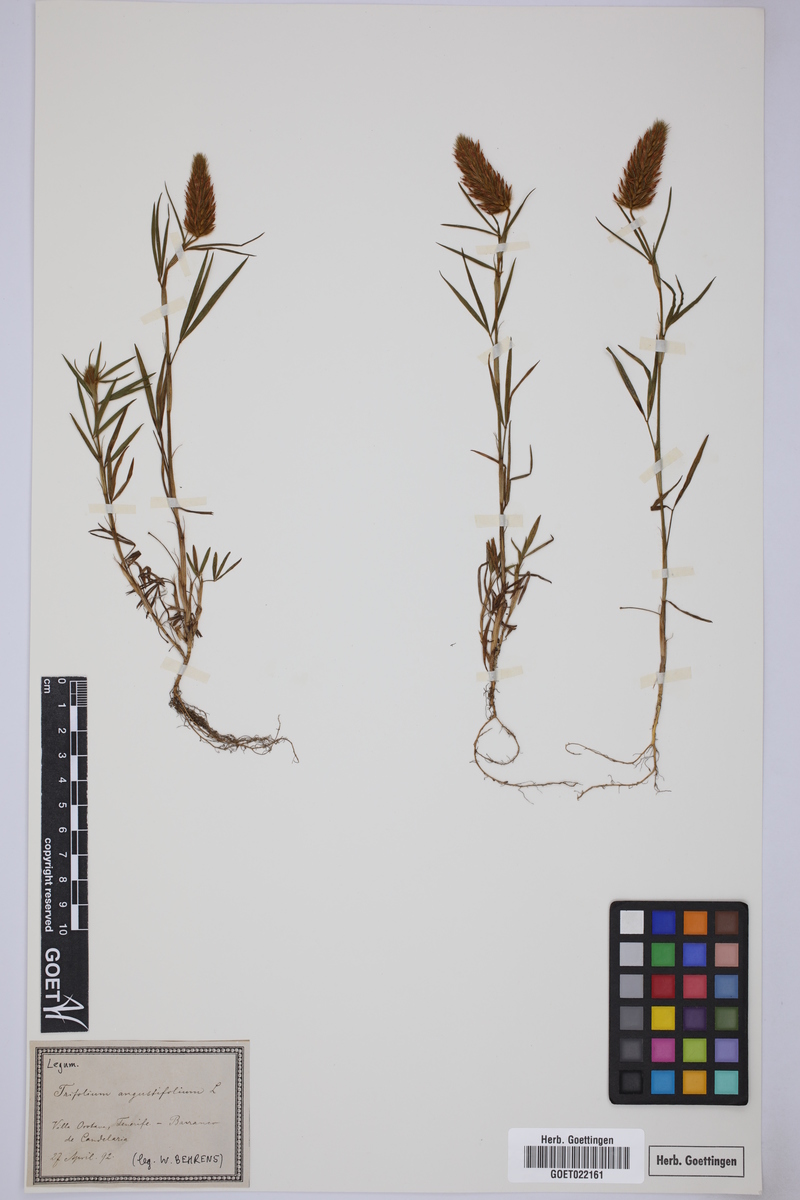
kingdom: Plantae
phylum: Tracheophyta
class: Magnoliopsida
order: Fabales
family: Fabaceae
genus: Trifolium
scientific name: Trifolium angustifolium
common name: Narrow clover
